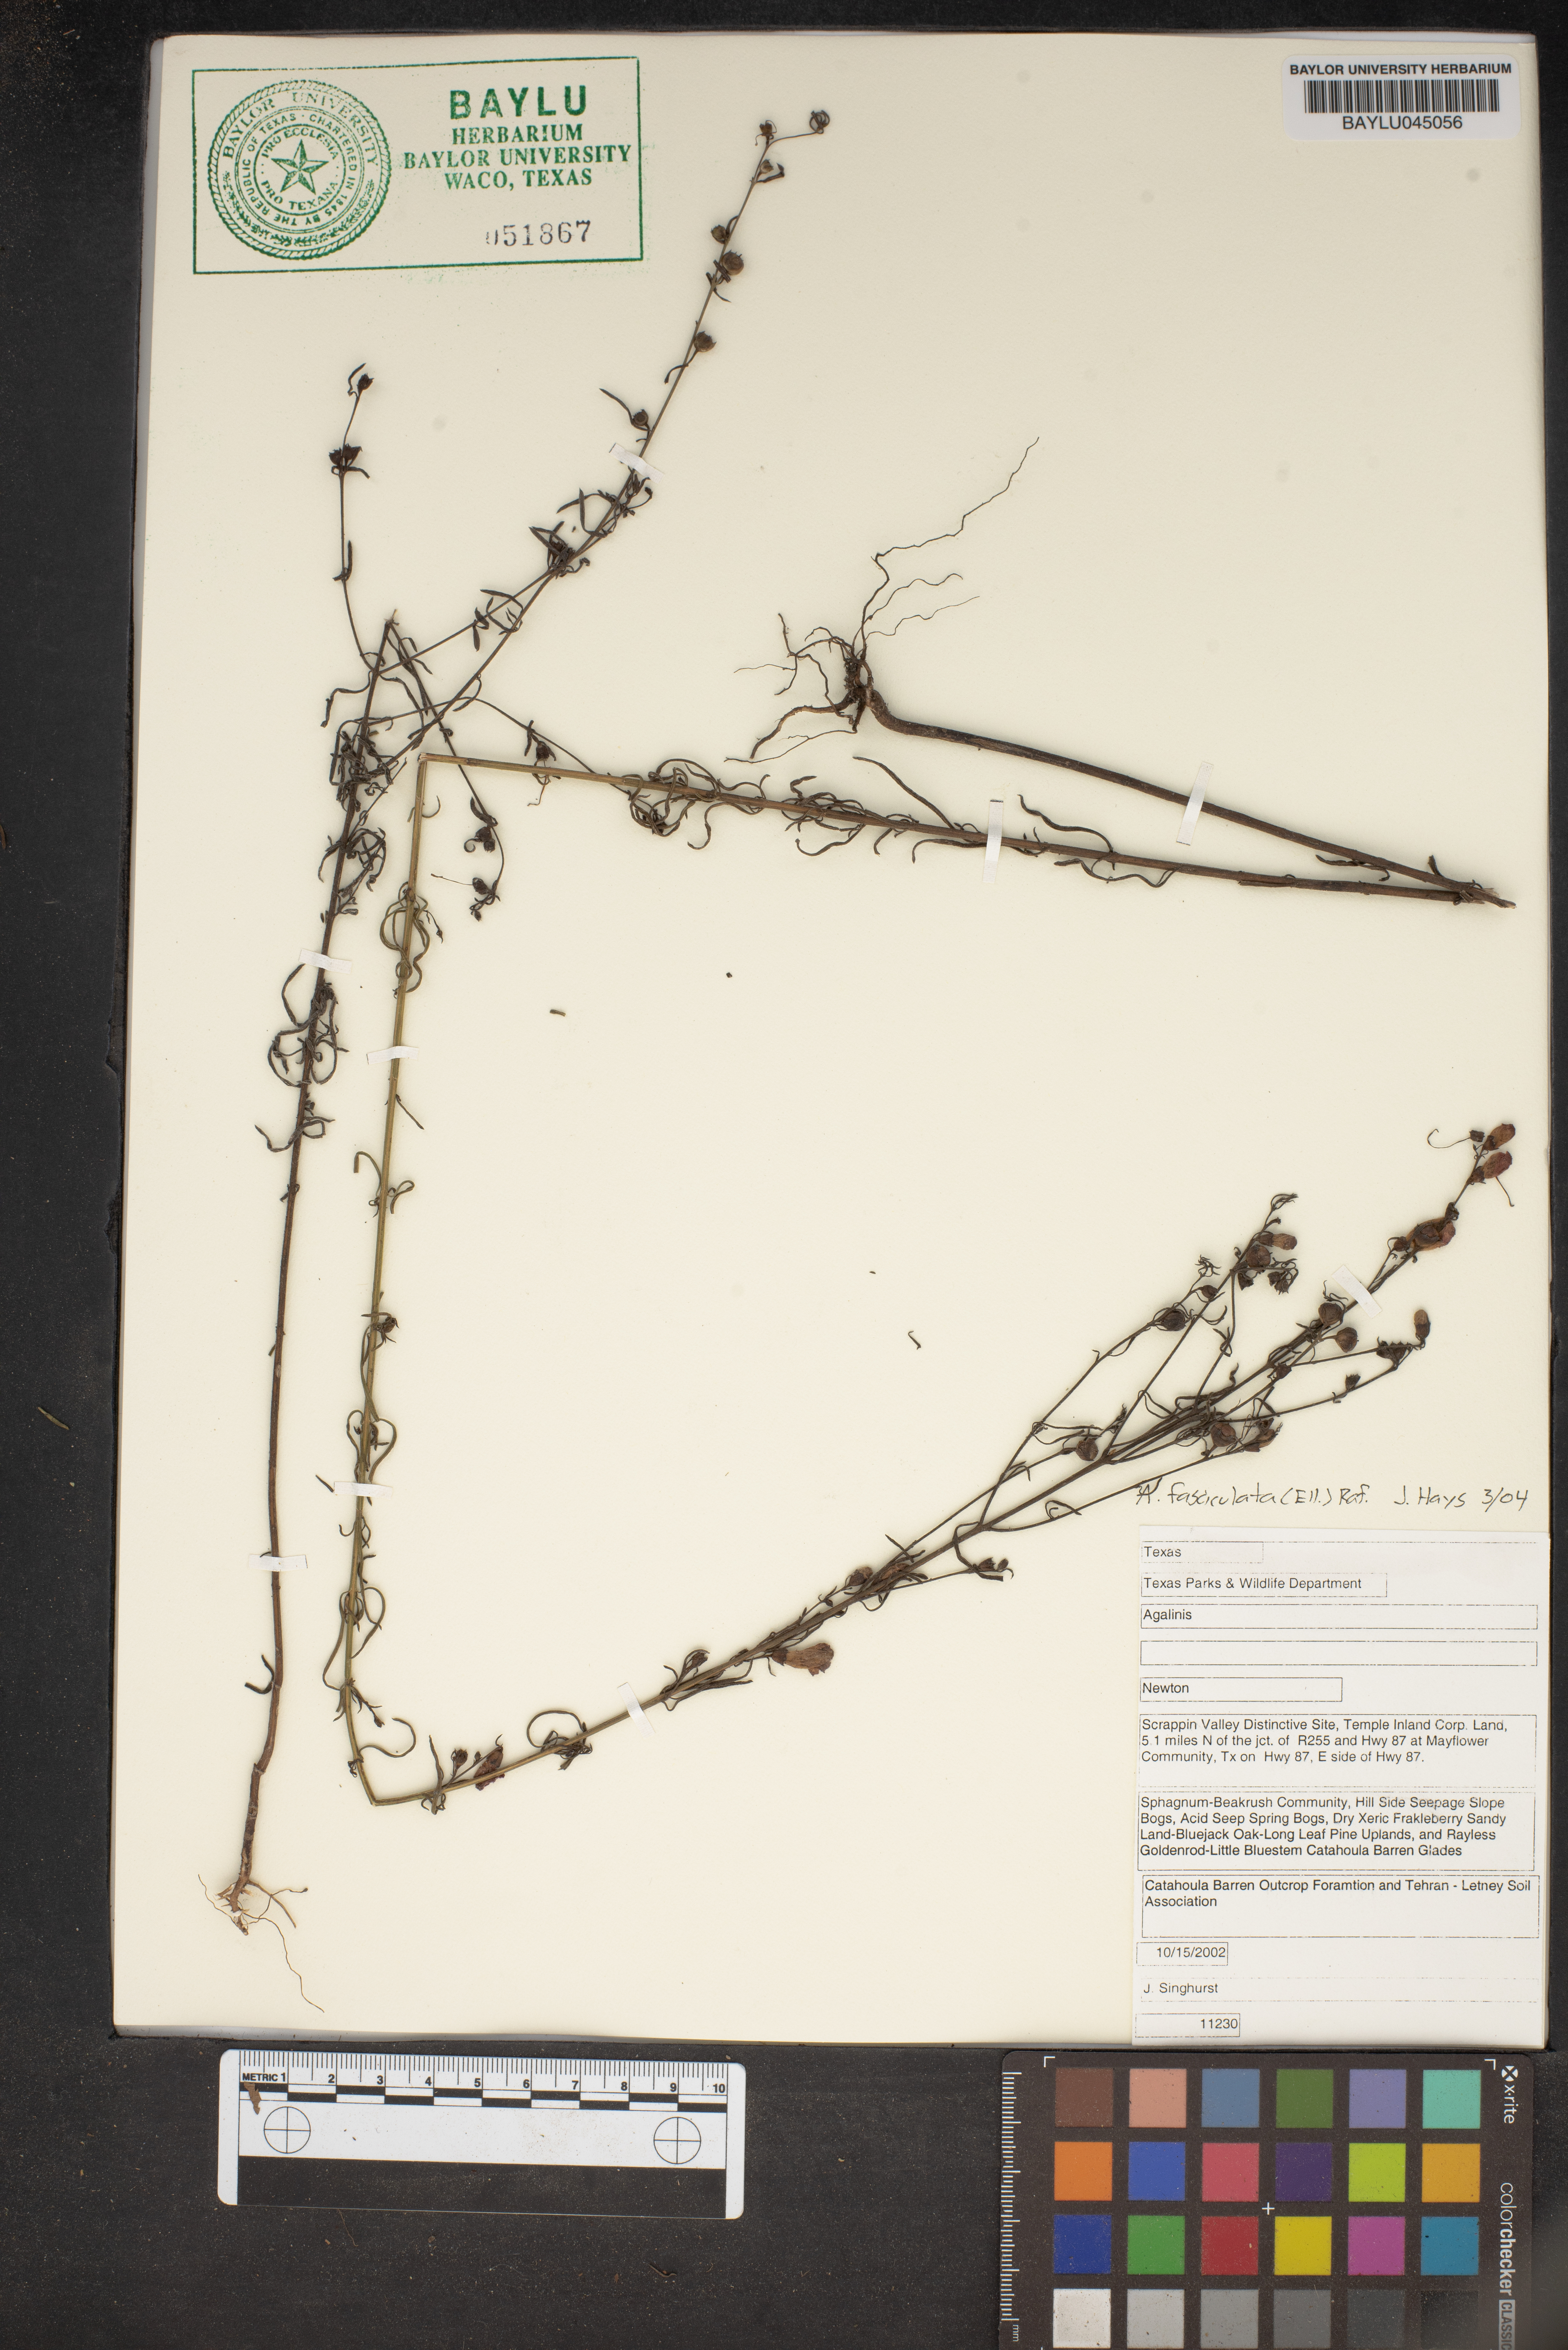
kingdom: Plantae
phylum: Tracheophyta
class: Magnoliopsida
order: Lamiales
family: Orobanchaceae
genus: Agalinis
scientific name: Agalinis
